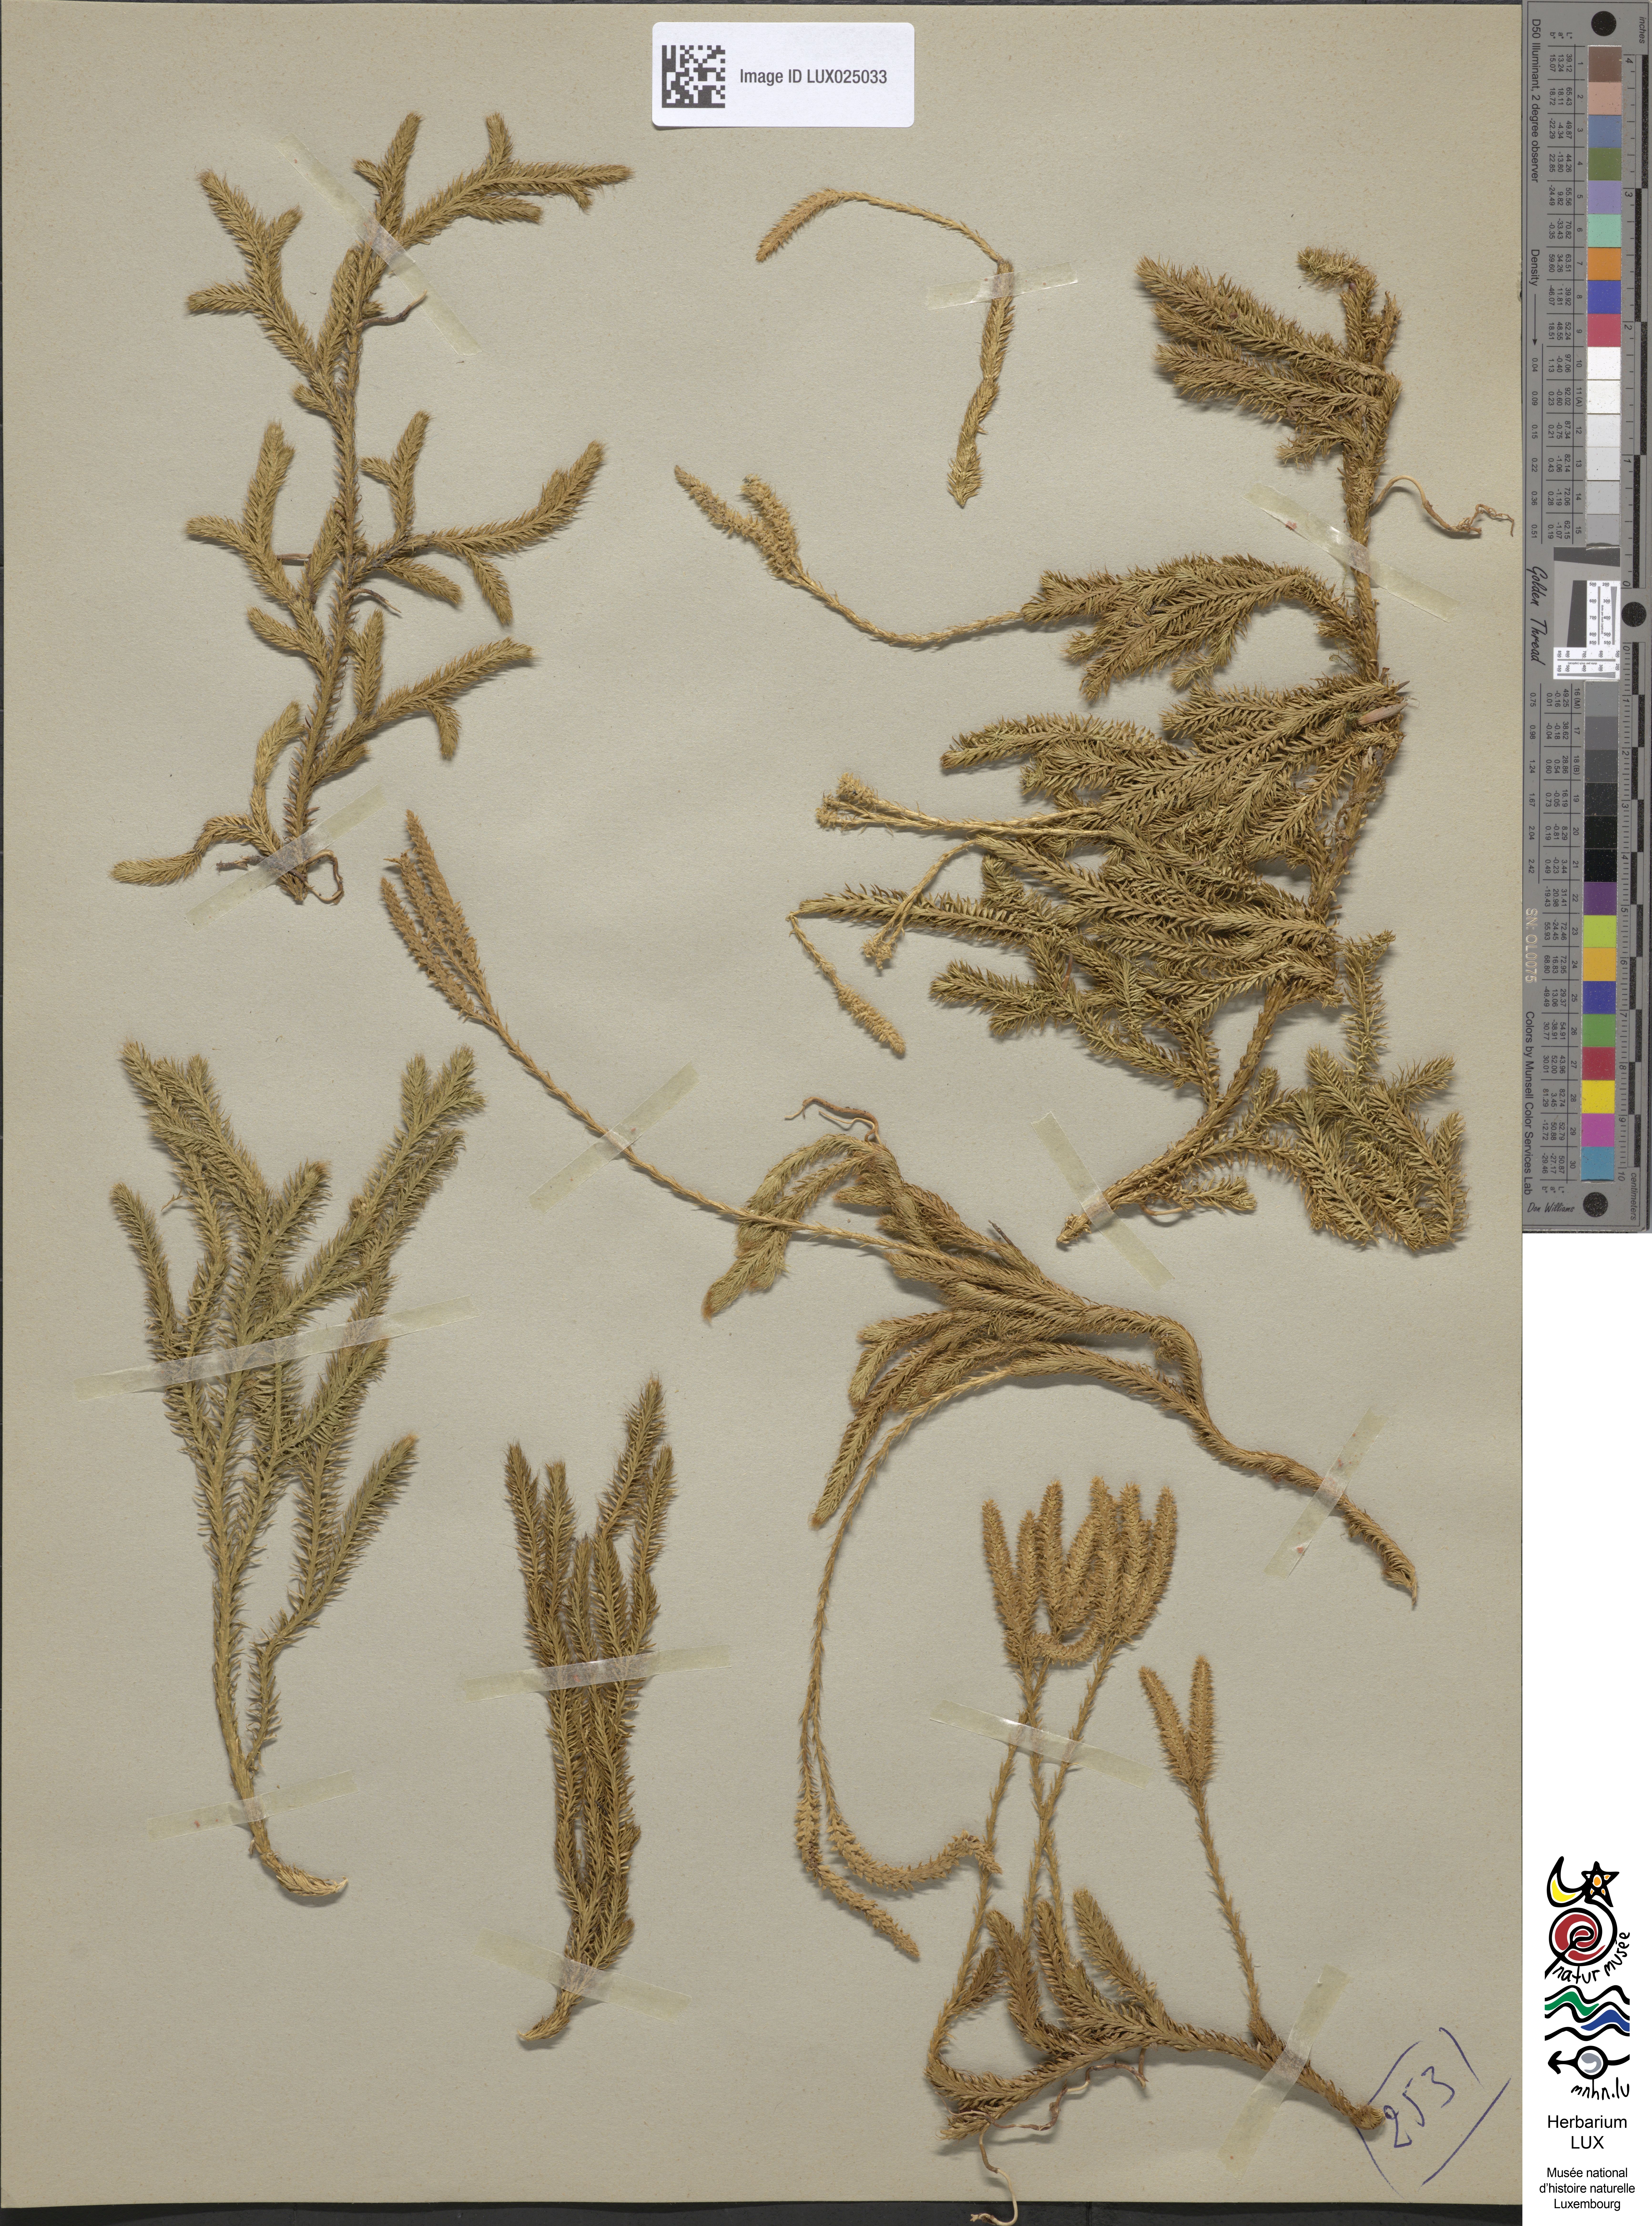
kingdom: Plantae
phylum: Tracheophyta
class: Lycopodiopsida
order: Lycopodiales
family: Lycopodiaceae
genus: Lycopodium
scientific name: Lycopodium clavatum
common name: Stag's-horn clubmoss
